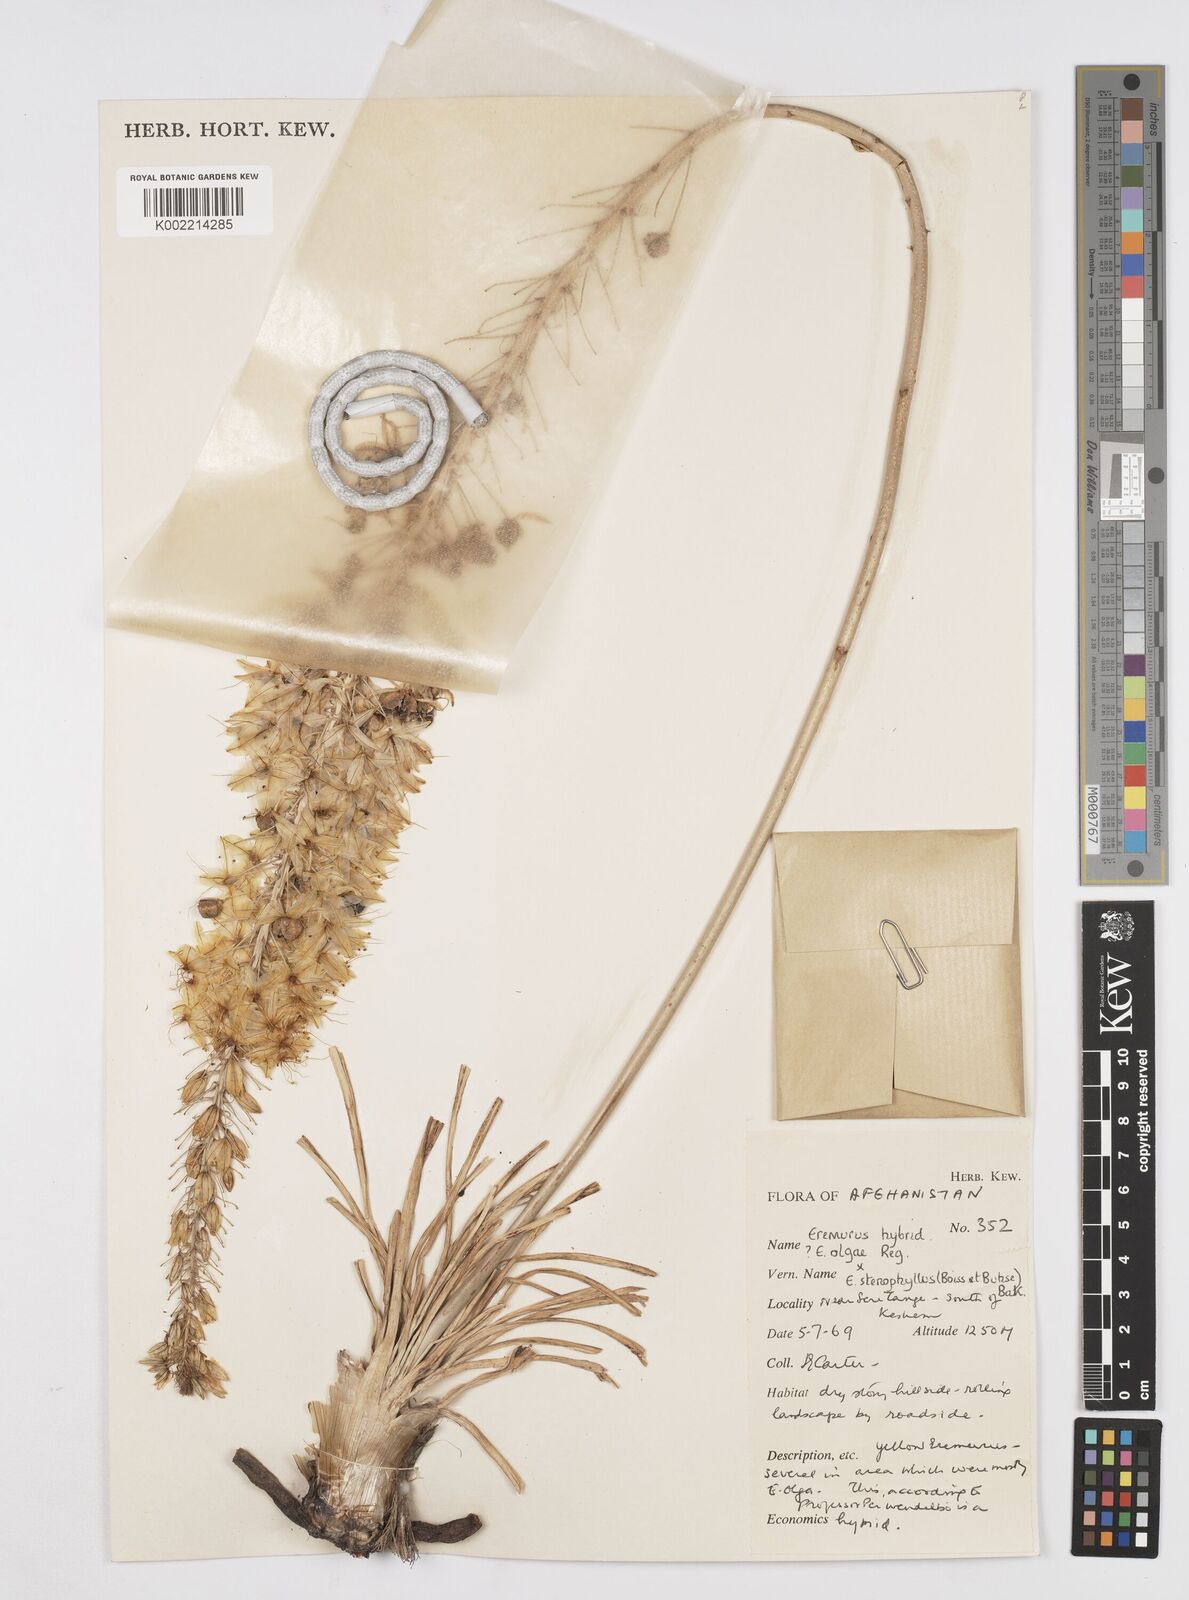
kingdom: Plantae
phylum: Tracheophyta
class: Liliopsida
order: Asparagales
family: Asphodelaceae
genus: Eremurus
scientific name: Eremurus olgae
